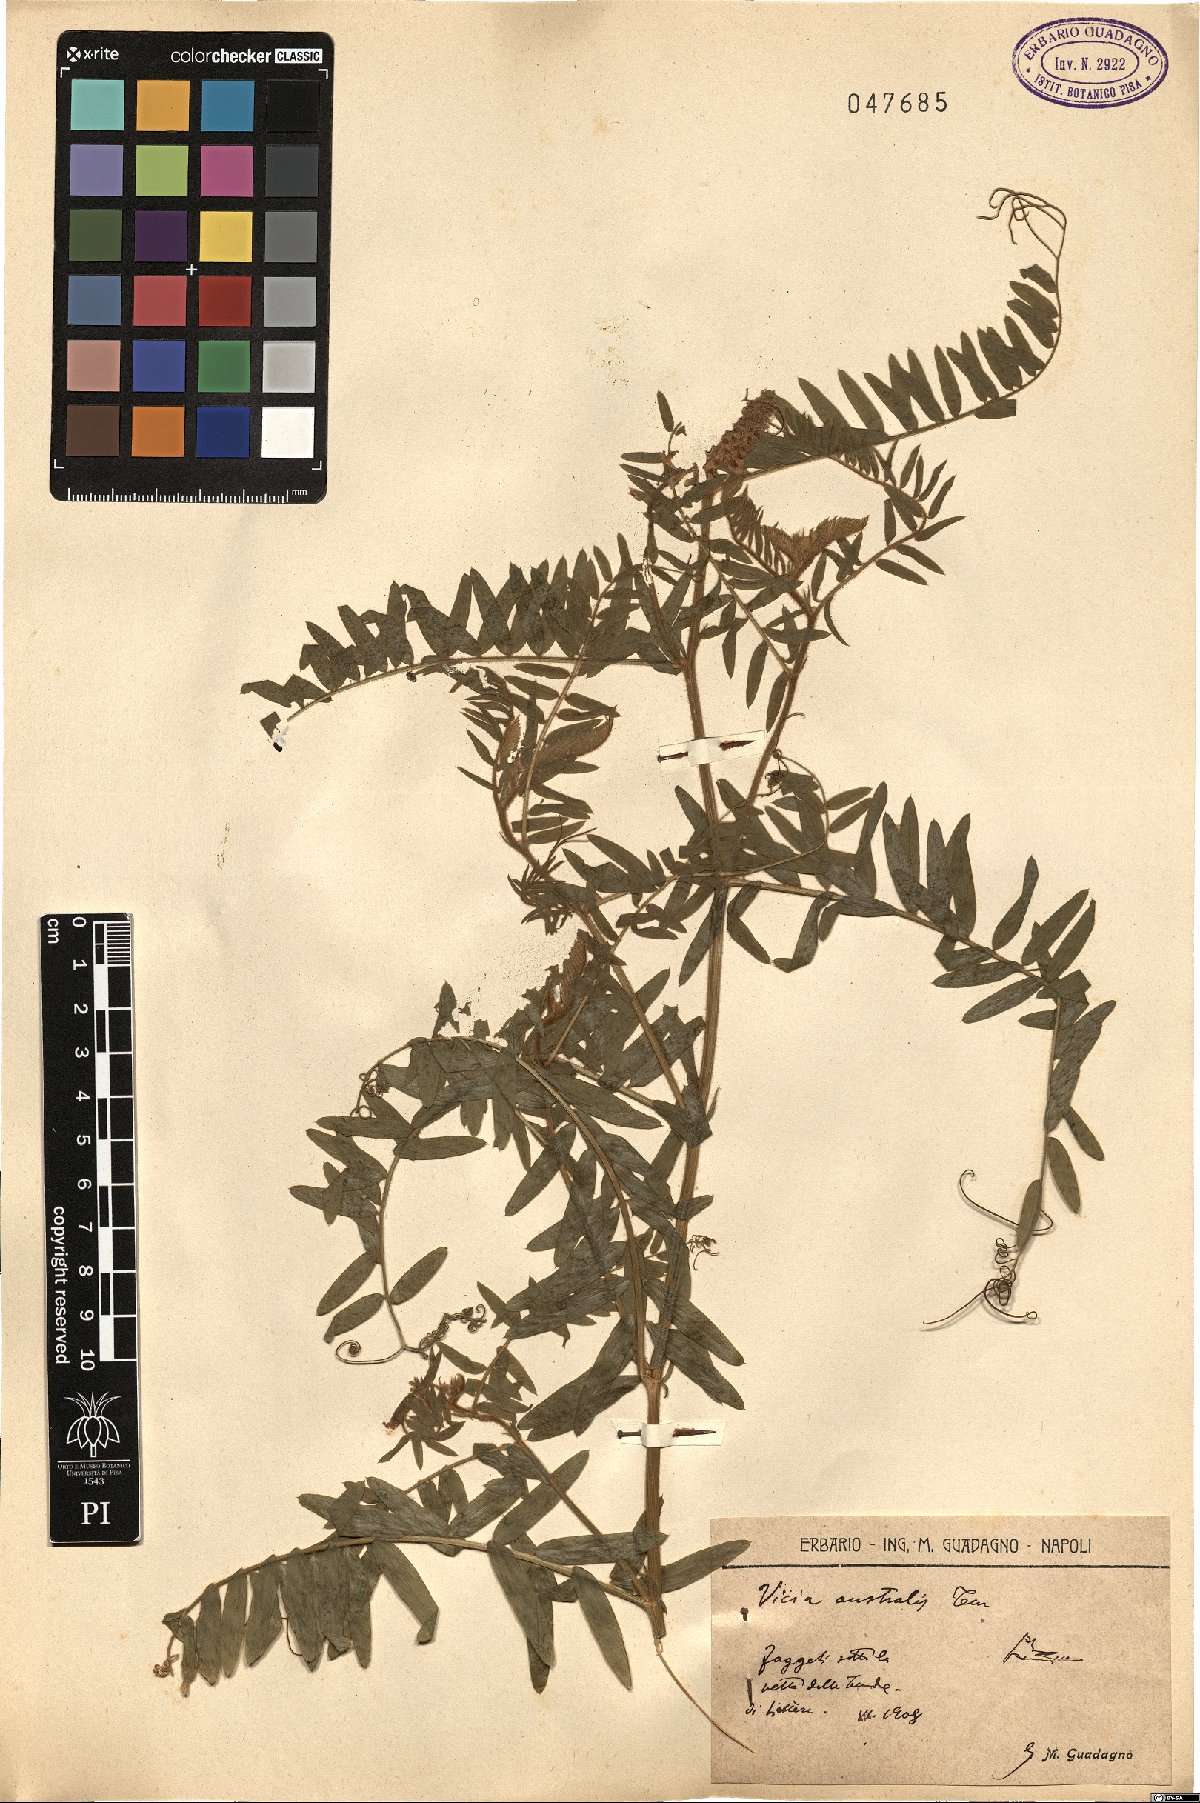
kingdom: Plantae
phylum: Tracheophyta
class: Magnoliopsida
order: Fabales
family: Fabaceae
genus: Vicia
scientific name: Vicia cracca
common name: Bird vetch
